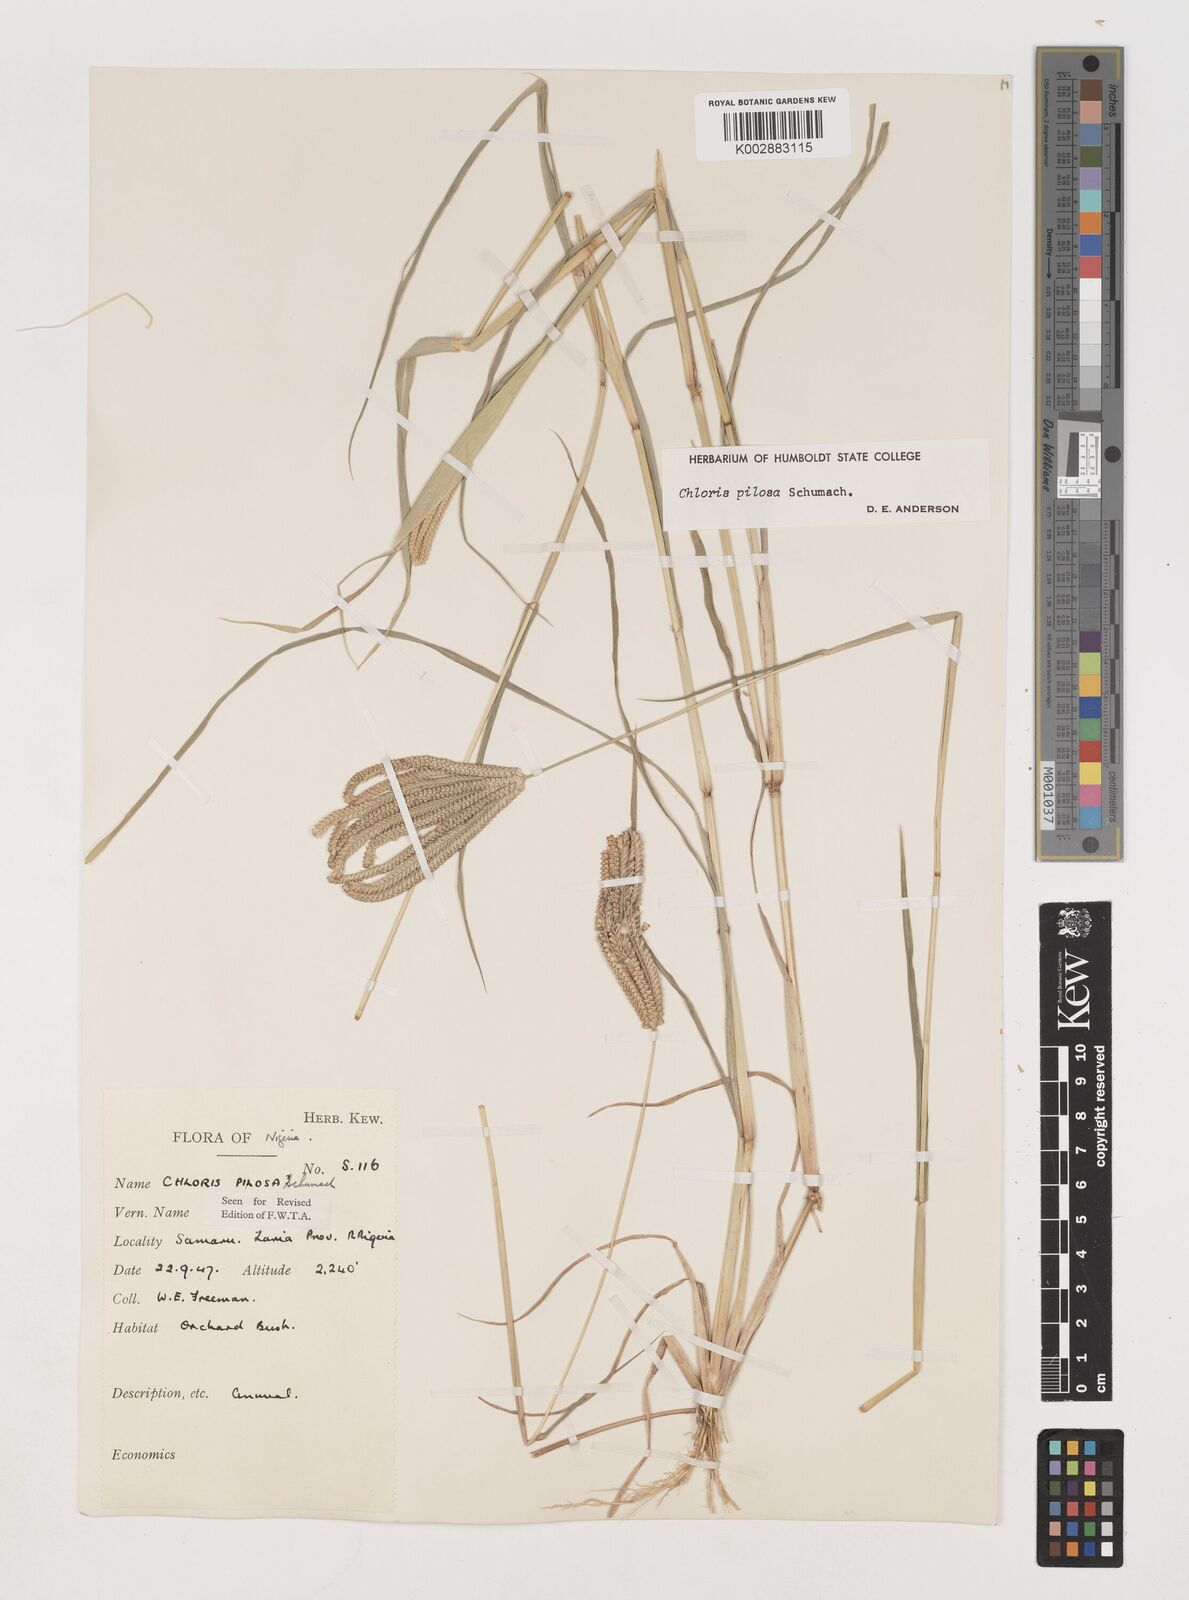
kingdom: Plantae
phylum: Tracheophyta
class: Liliopsida
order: Poales
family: Poaceae
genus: Chloris
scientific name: Chloris pilosa
